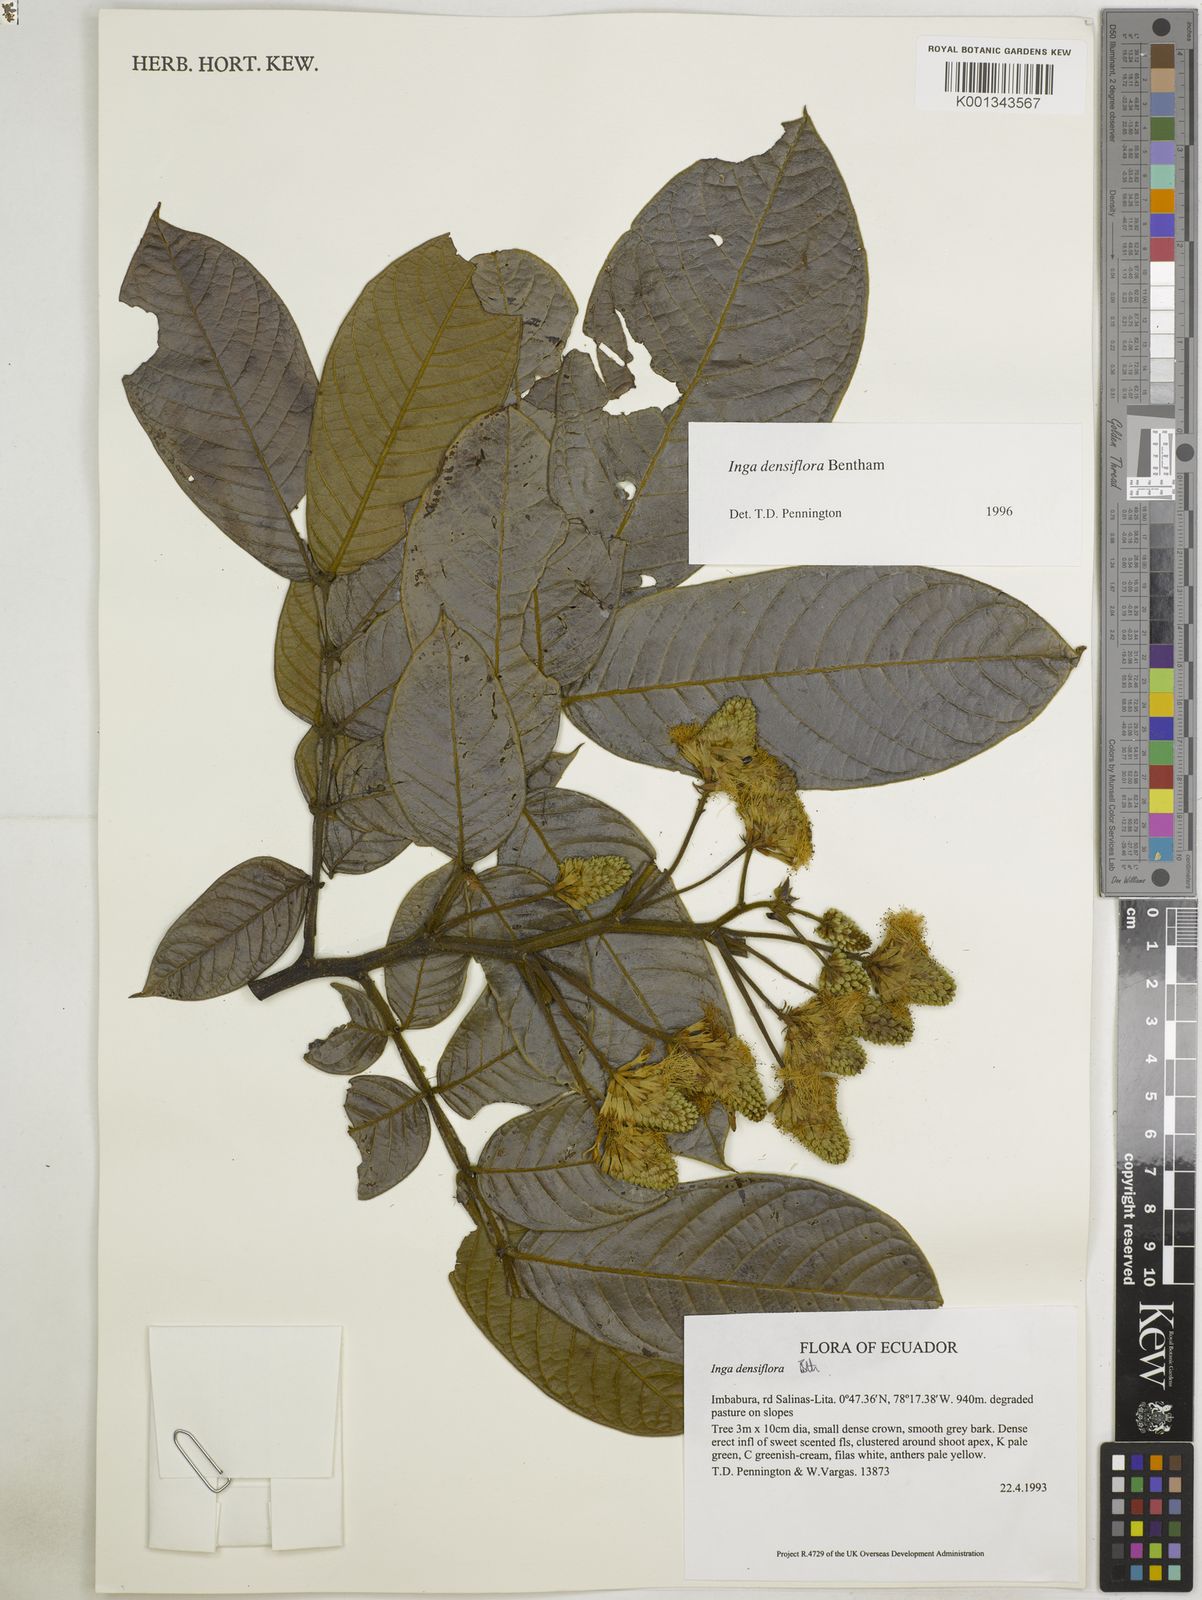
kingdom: Plantae
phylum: Tracheophyta
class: Magnoliopsida
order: Fabales
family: Fabaceae
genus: Inga
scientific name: Inga densiflora
